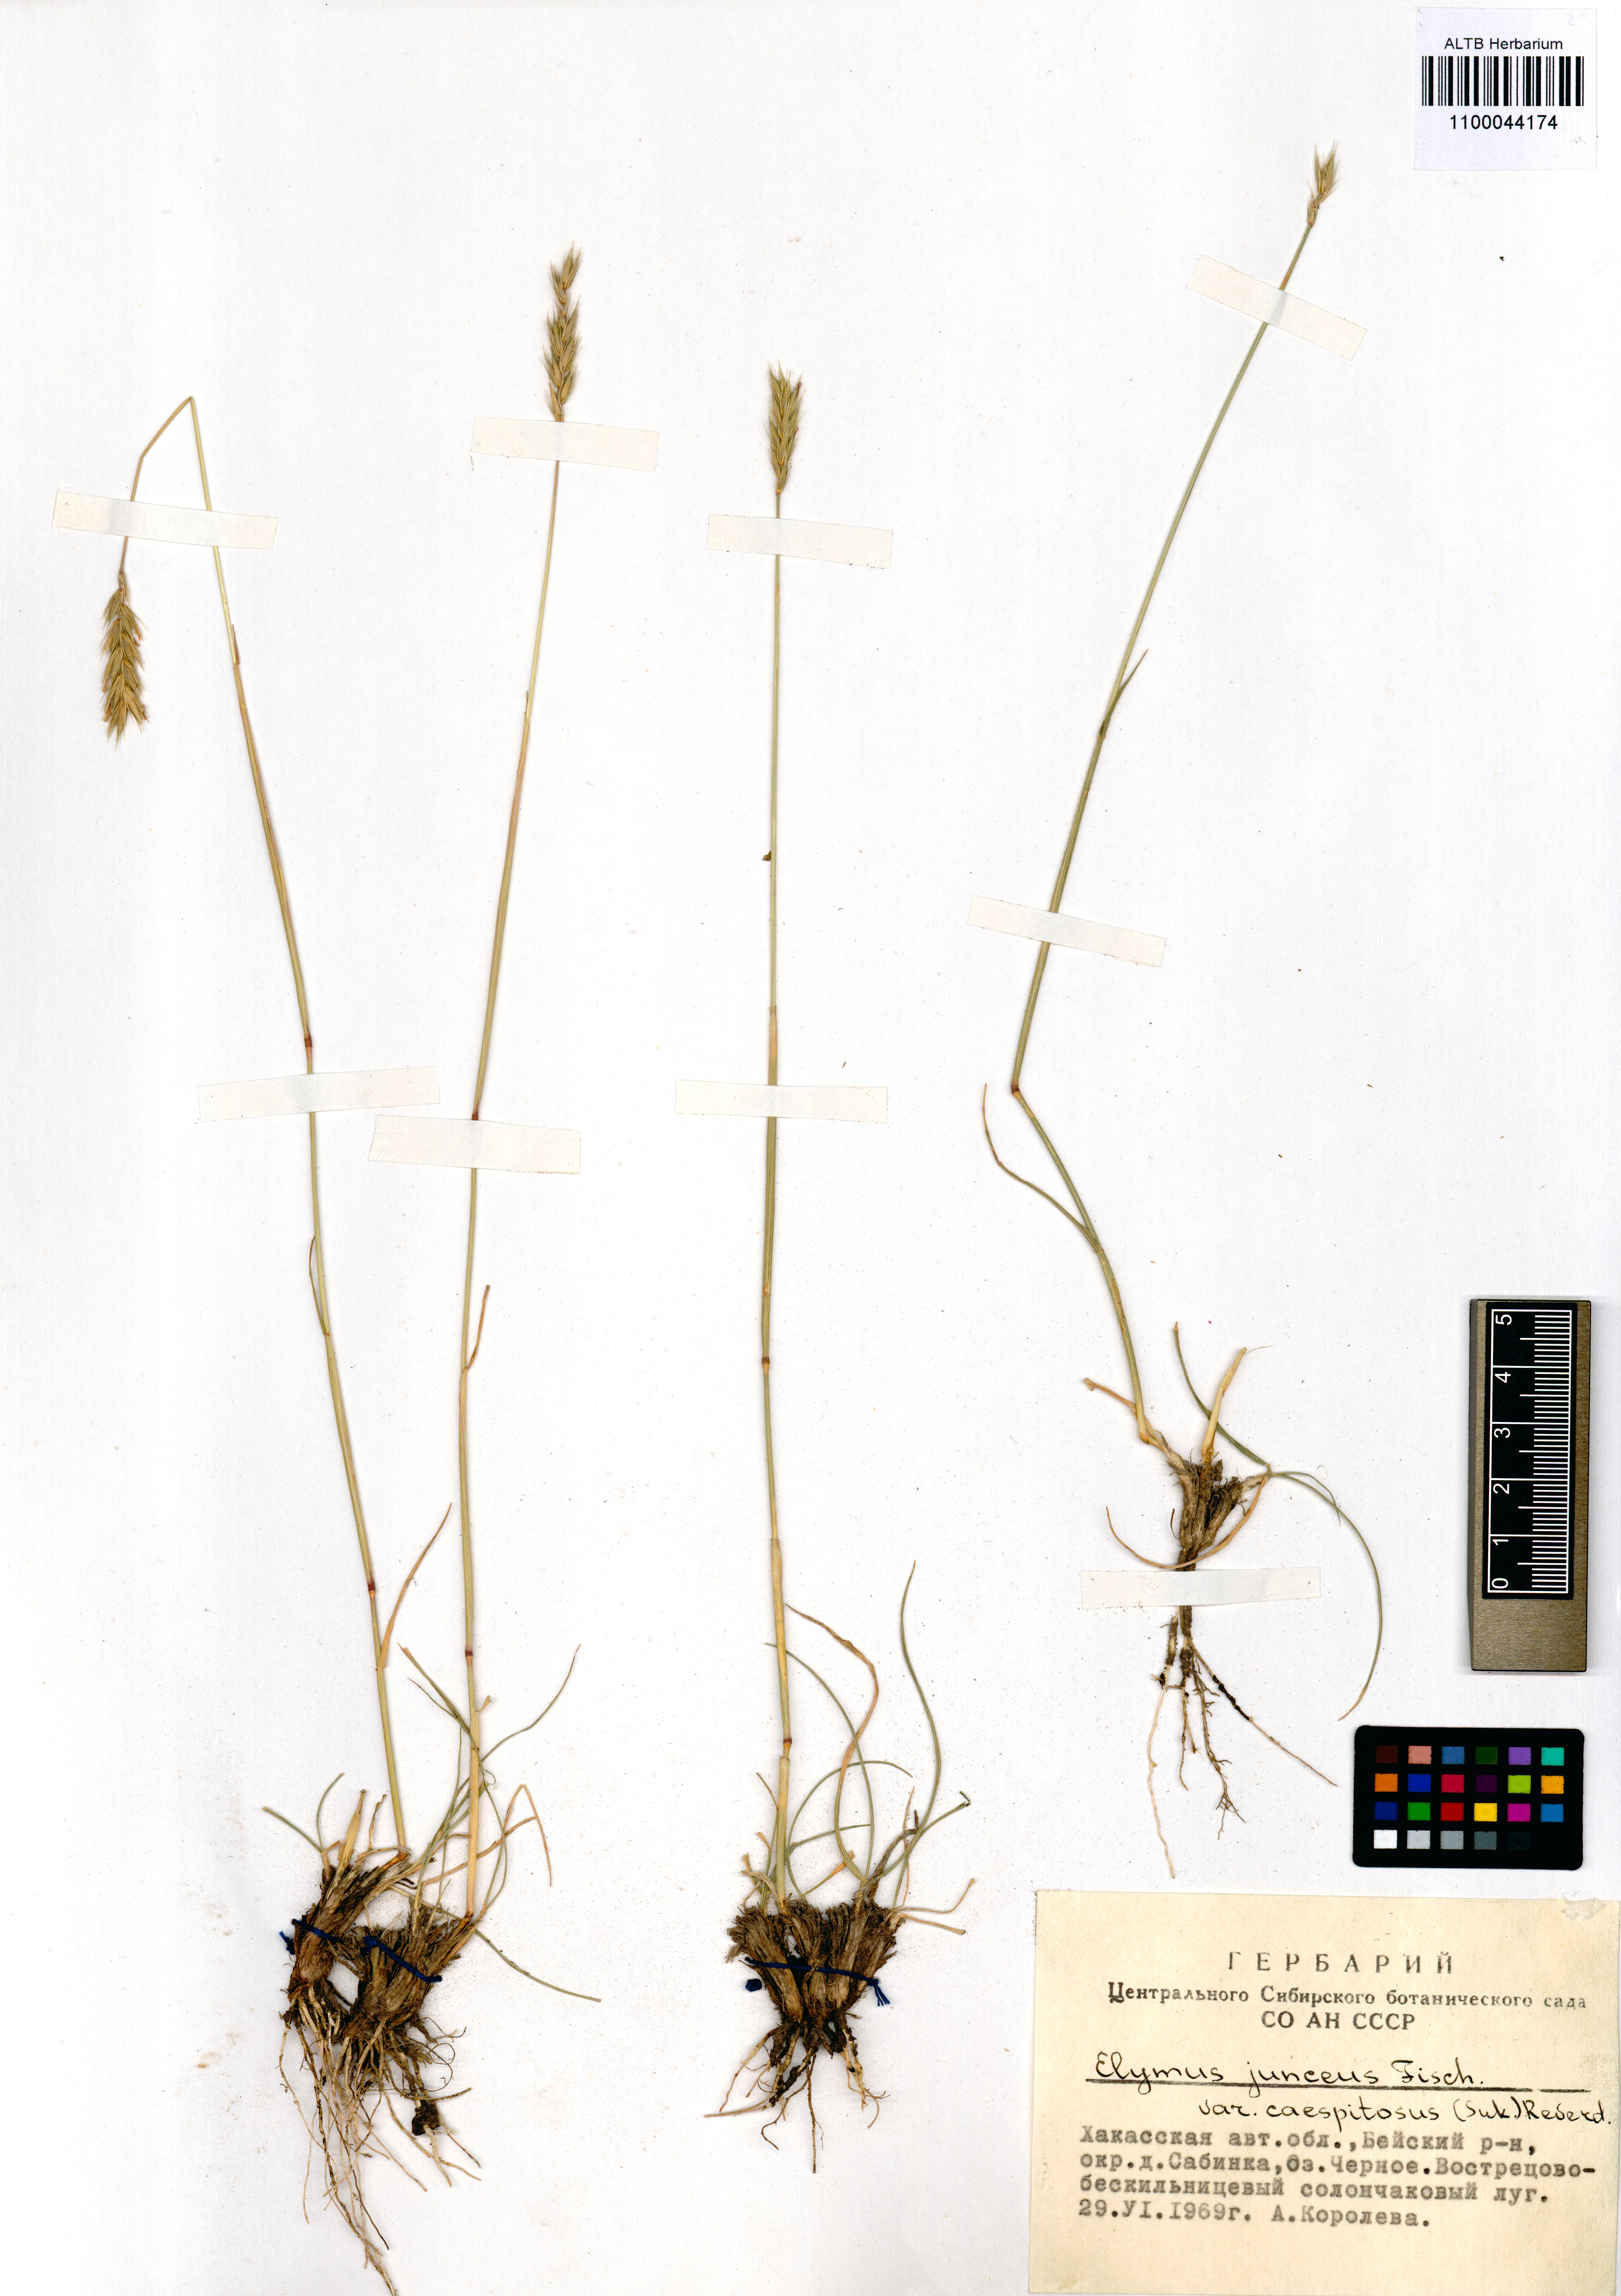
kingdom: Plantae
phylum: Tracheophyta
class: Liliopsida
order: Poales
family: Poaceae
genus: Psathyrostachys
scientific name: Psathyrostachys juncea
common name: Russian wildrye
